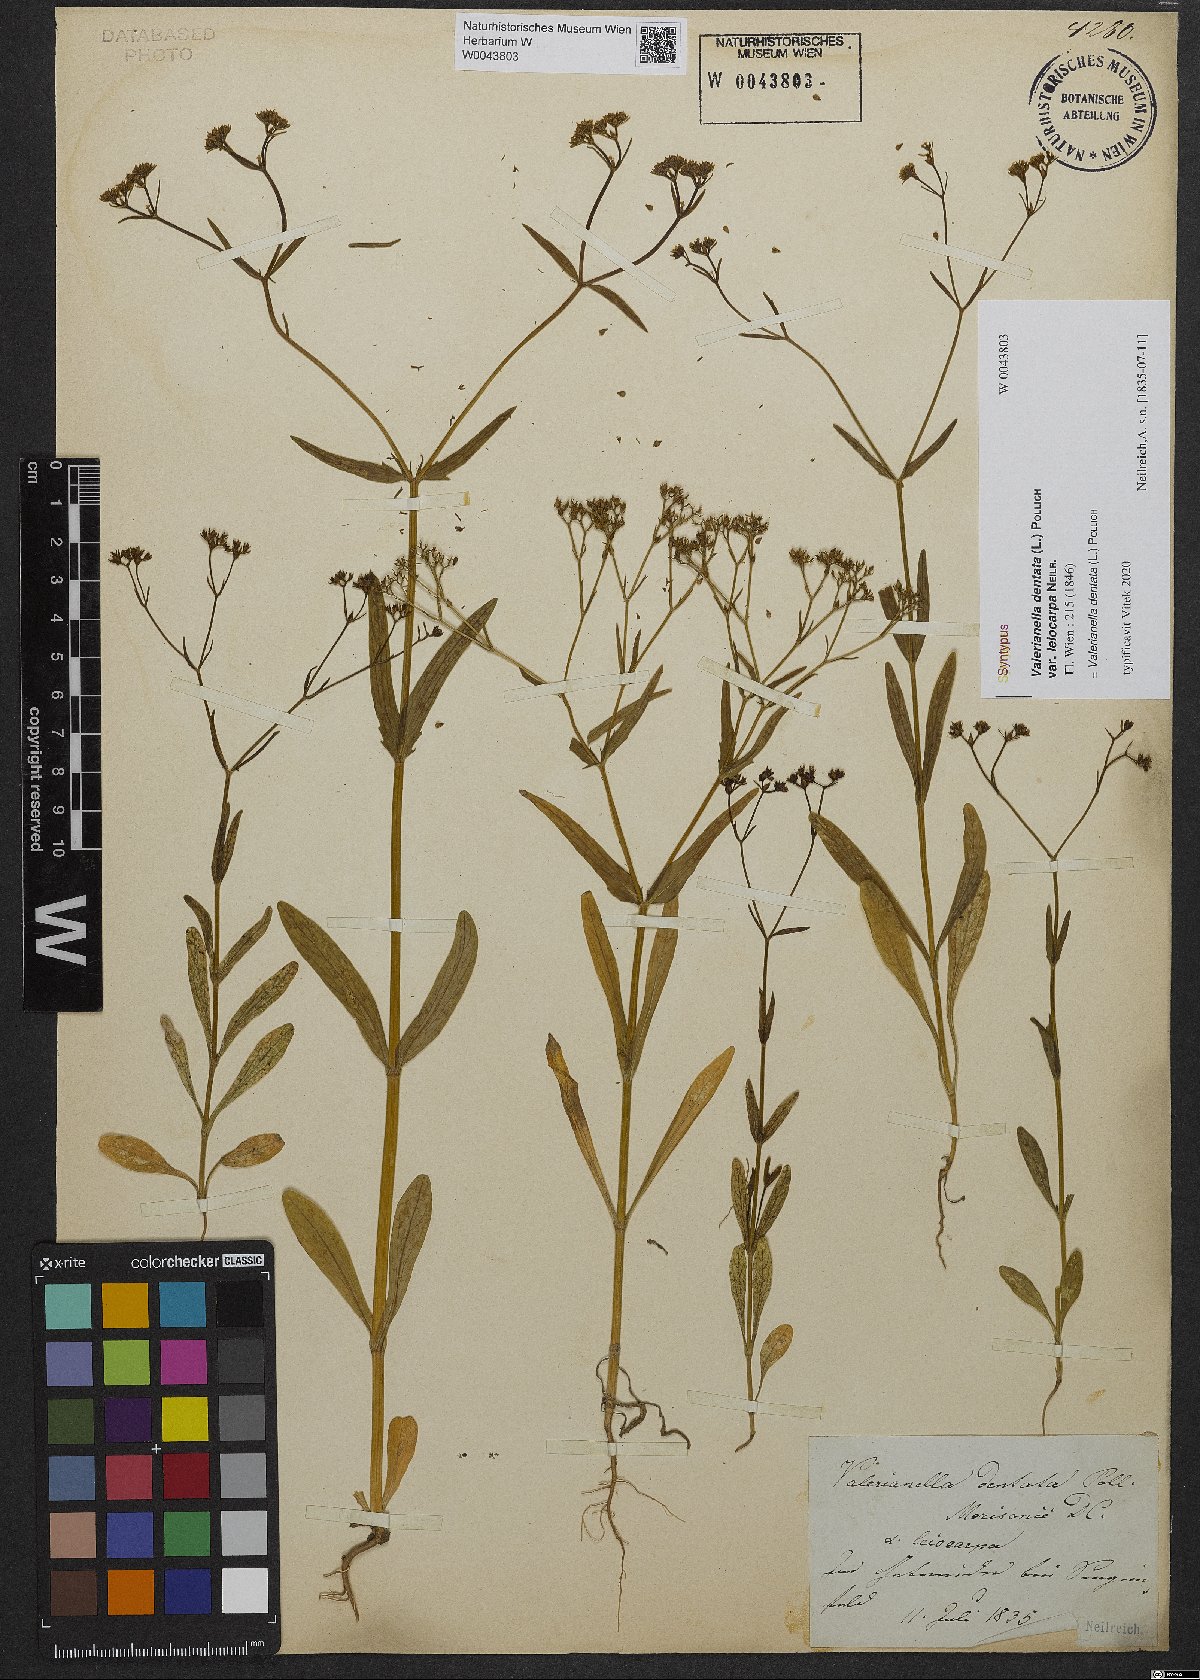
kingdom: Plantae
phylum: Tracheophyta
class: Magnoliopsida
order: Dipsacales
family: Caprifoliaceae
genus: Valerianella
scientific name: Valerianella dentata
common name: Narrow-fruited cornsalad
